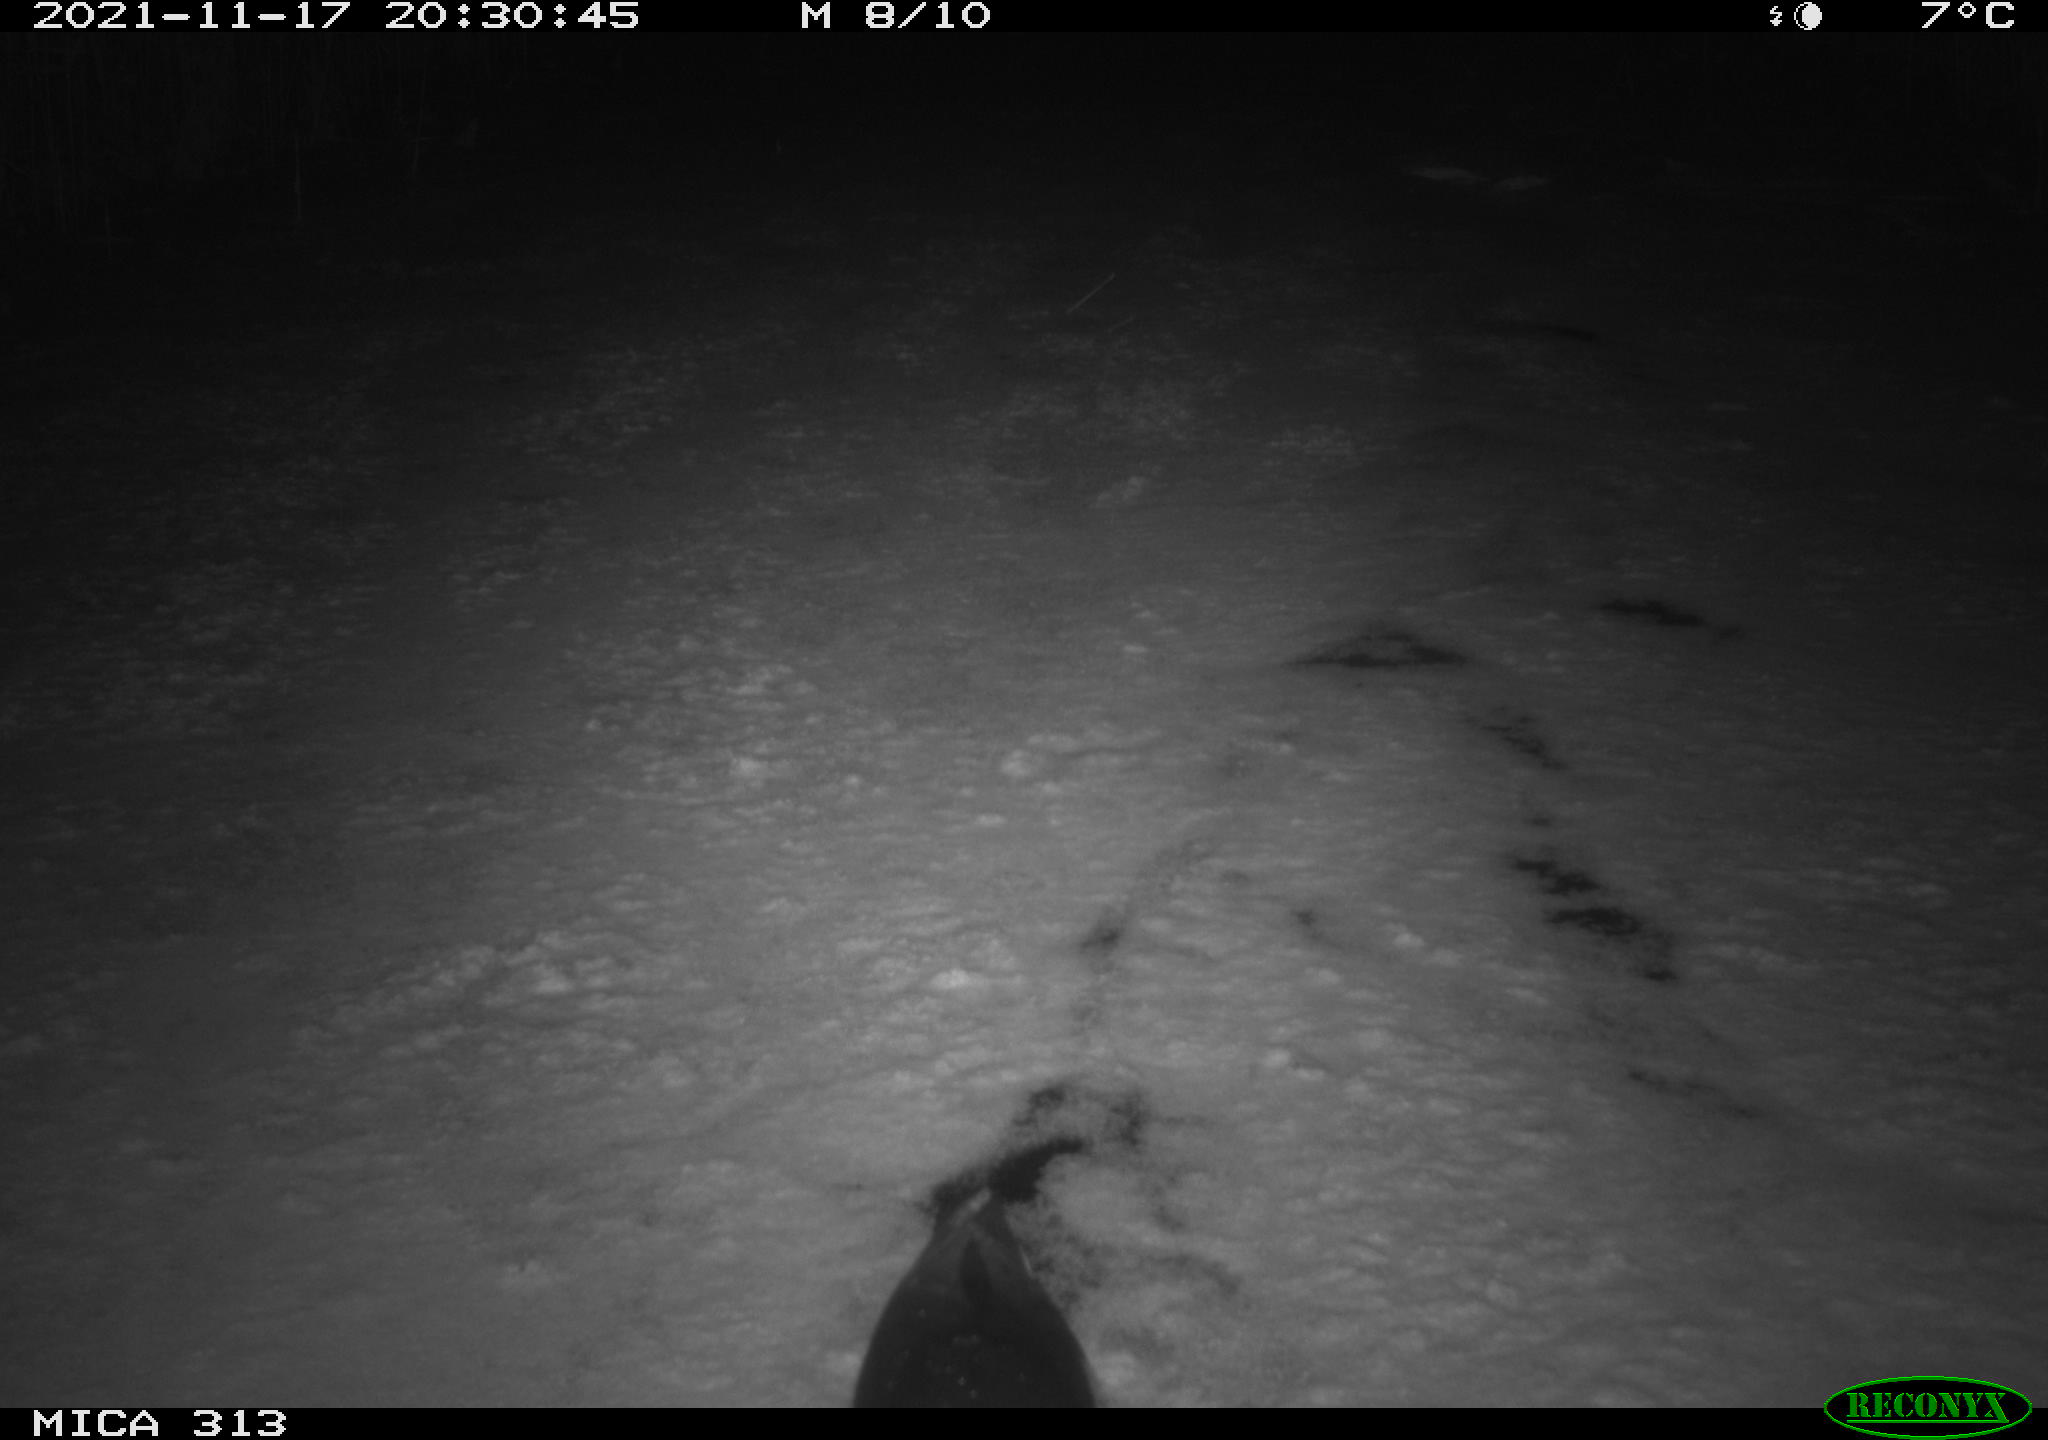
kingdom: Animalia
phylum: Chordata
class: Aves
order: Gruiformes
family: Rallidae
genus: Gallinula
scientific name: Gallinula chloropus
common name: Common moorhen
